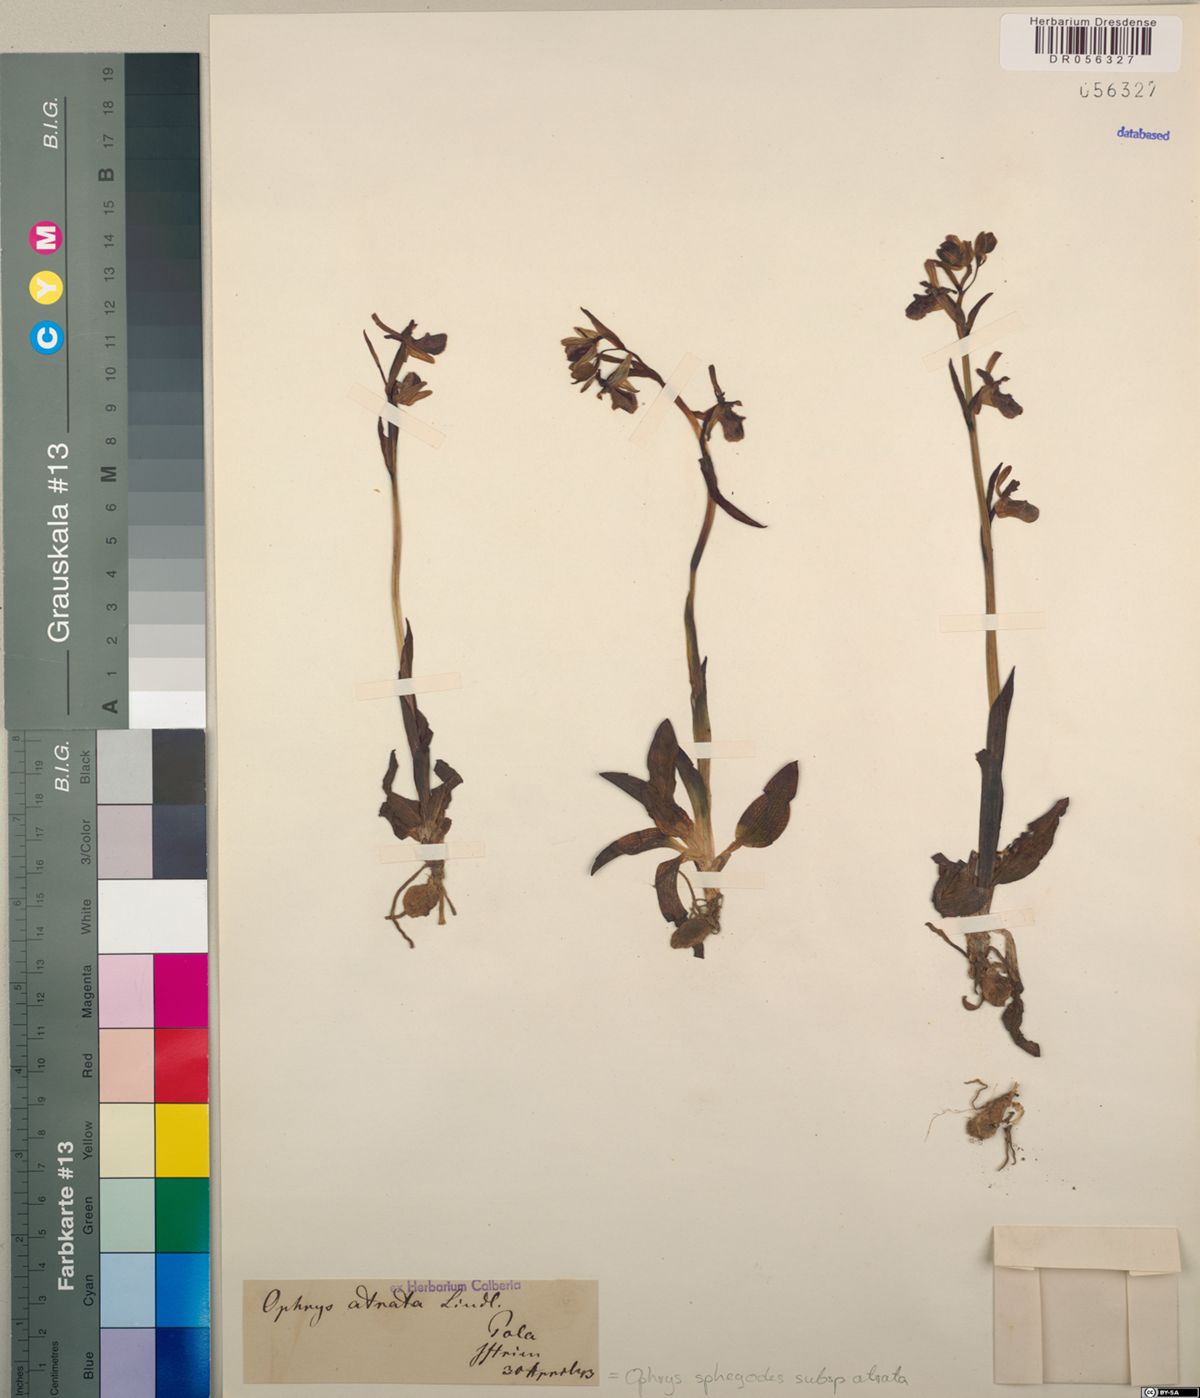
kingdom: Plantae
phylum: Tracheophyta
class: Liliopsida
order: Asparagales
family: Orchidaceae
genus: Ophrys
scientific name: Ophrys sphegodes
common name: Early spider-orchid
